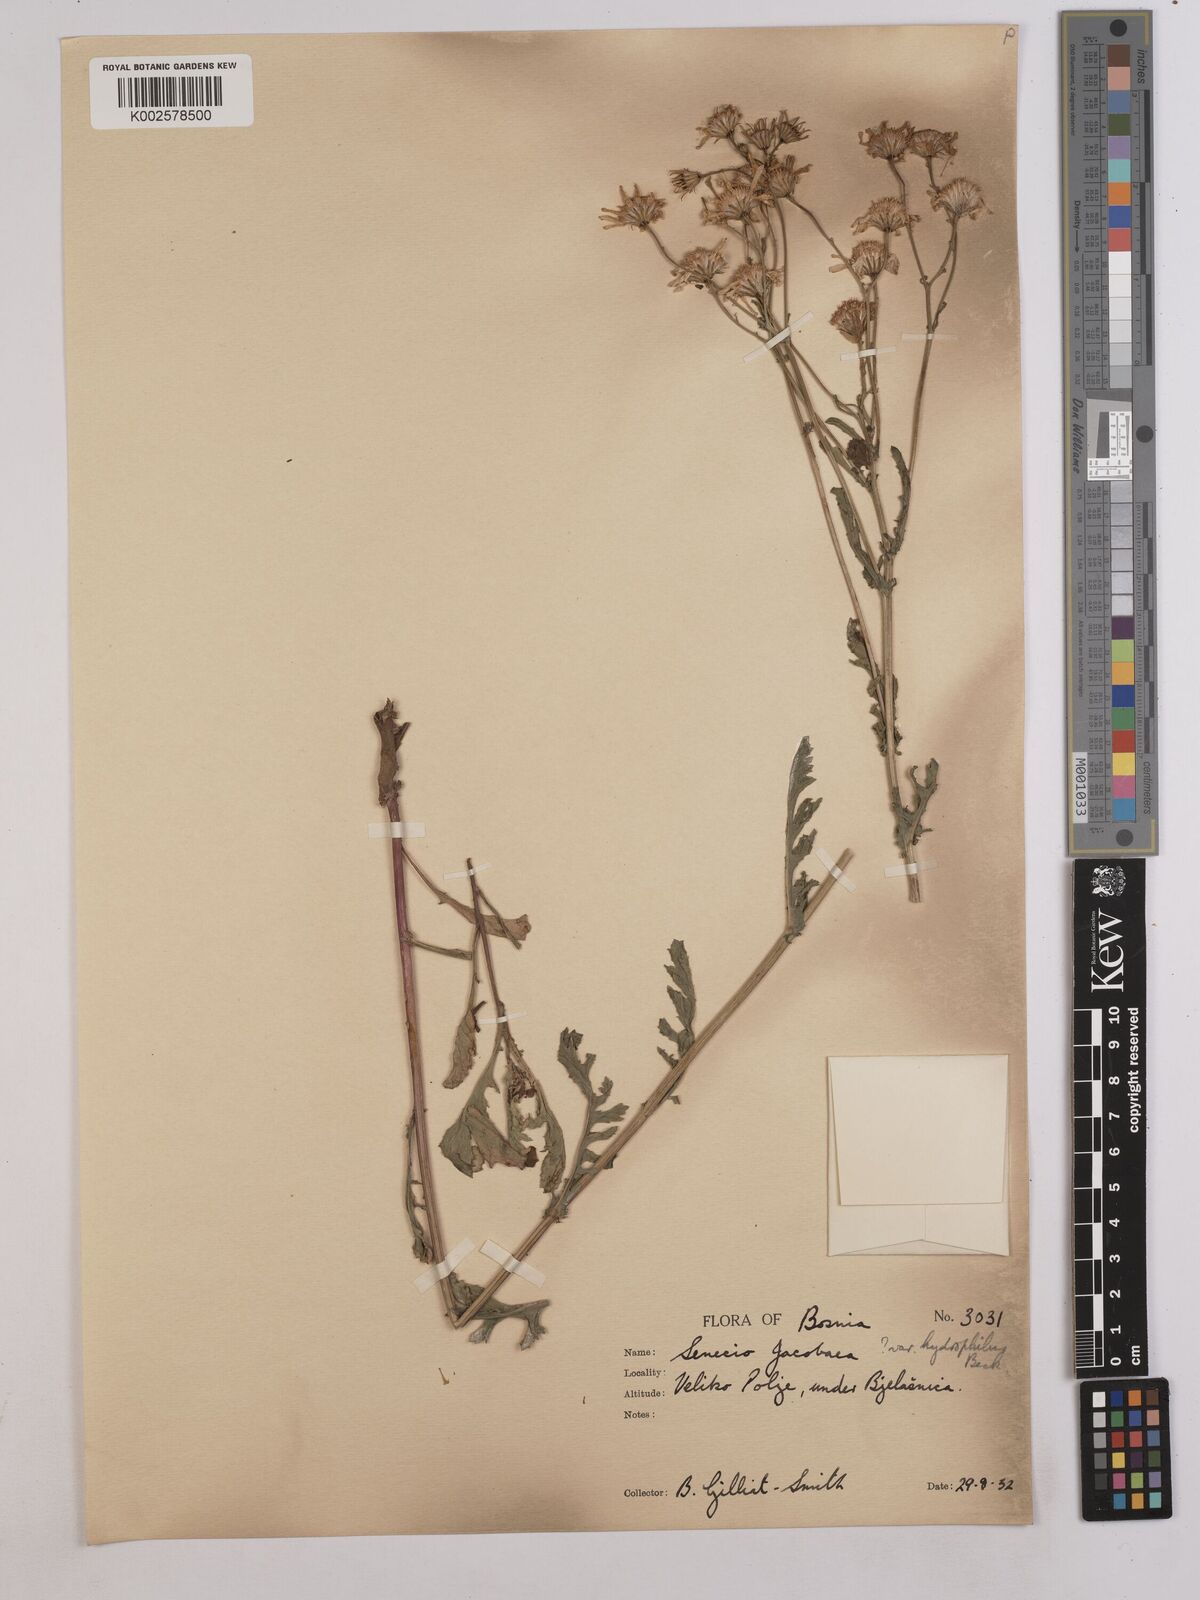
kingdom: Plantae
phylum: Tracheophyta
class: Magnoliopsida
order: Asterales
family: Asteraceae
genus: Jacobaea
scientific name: Jacobaea vulgaris
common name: Stinking willie
